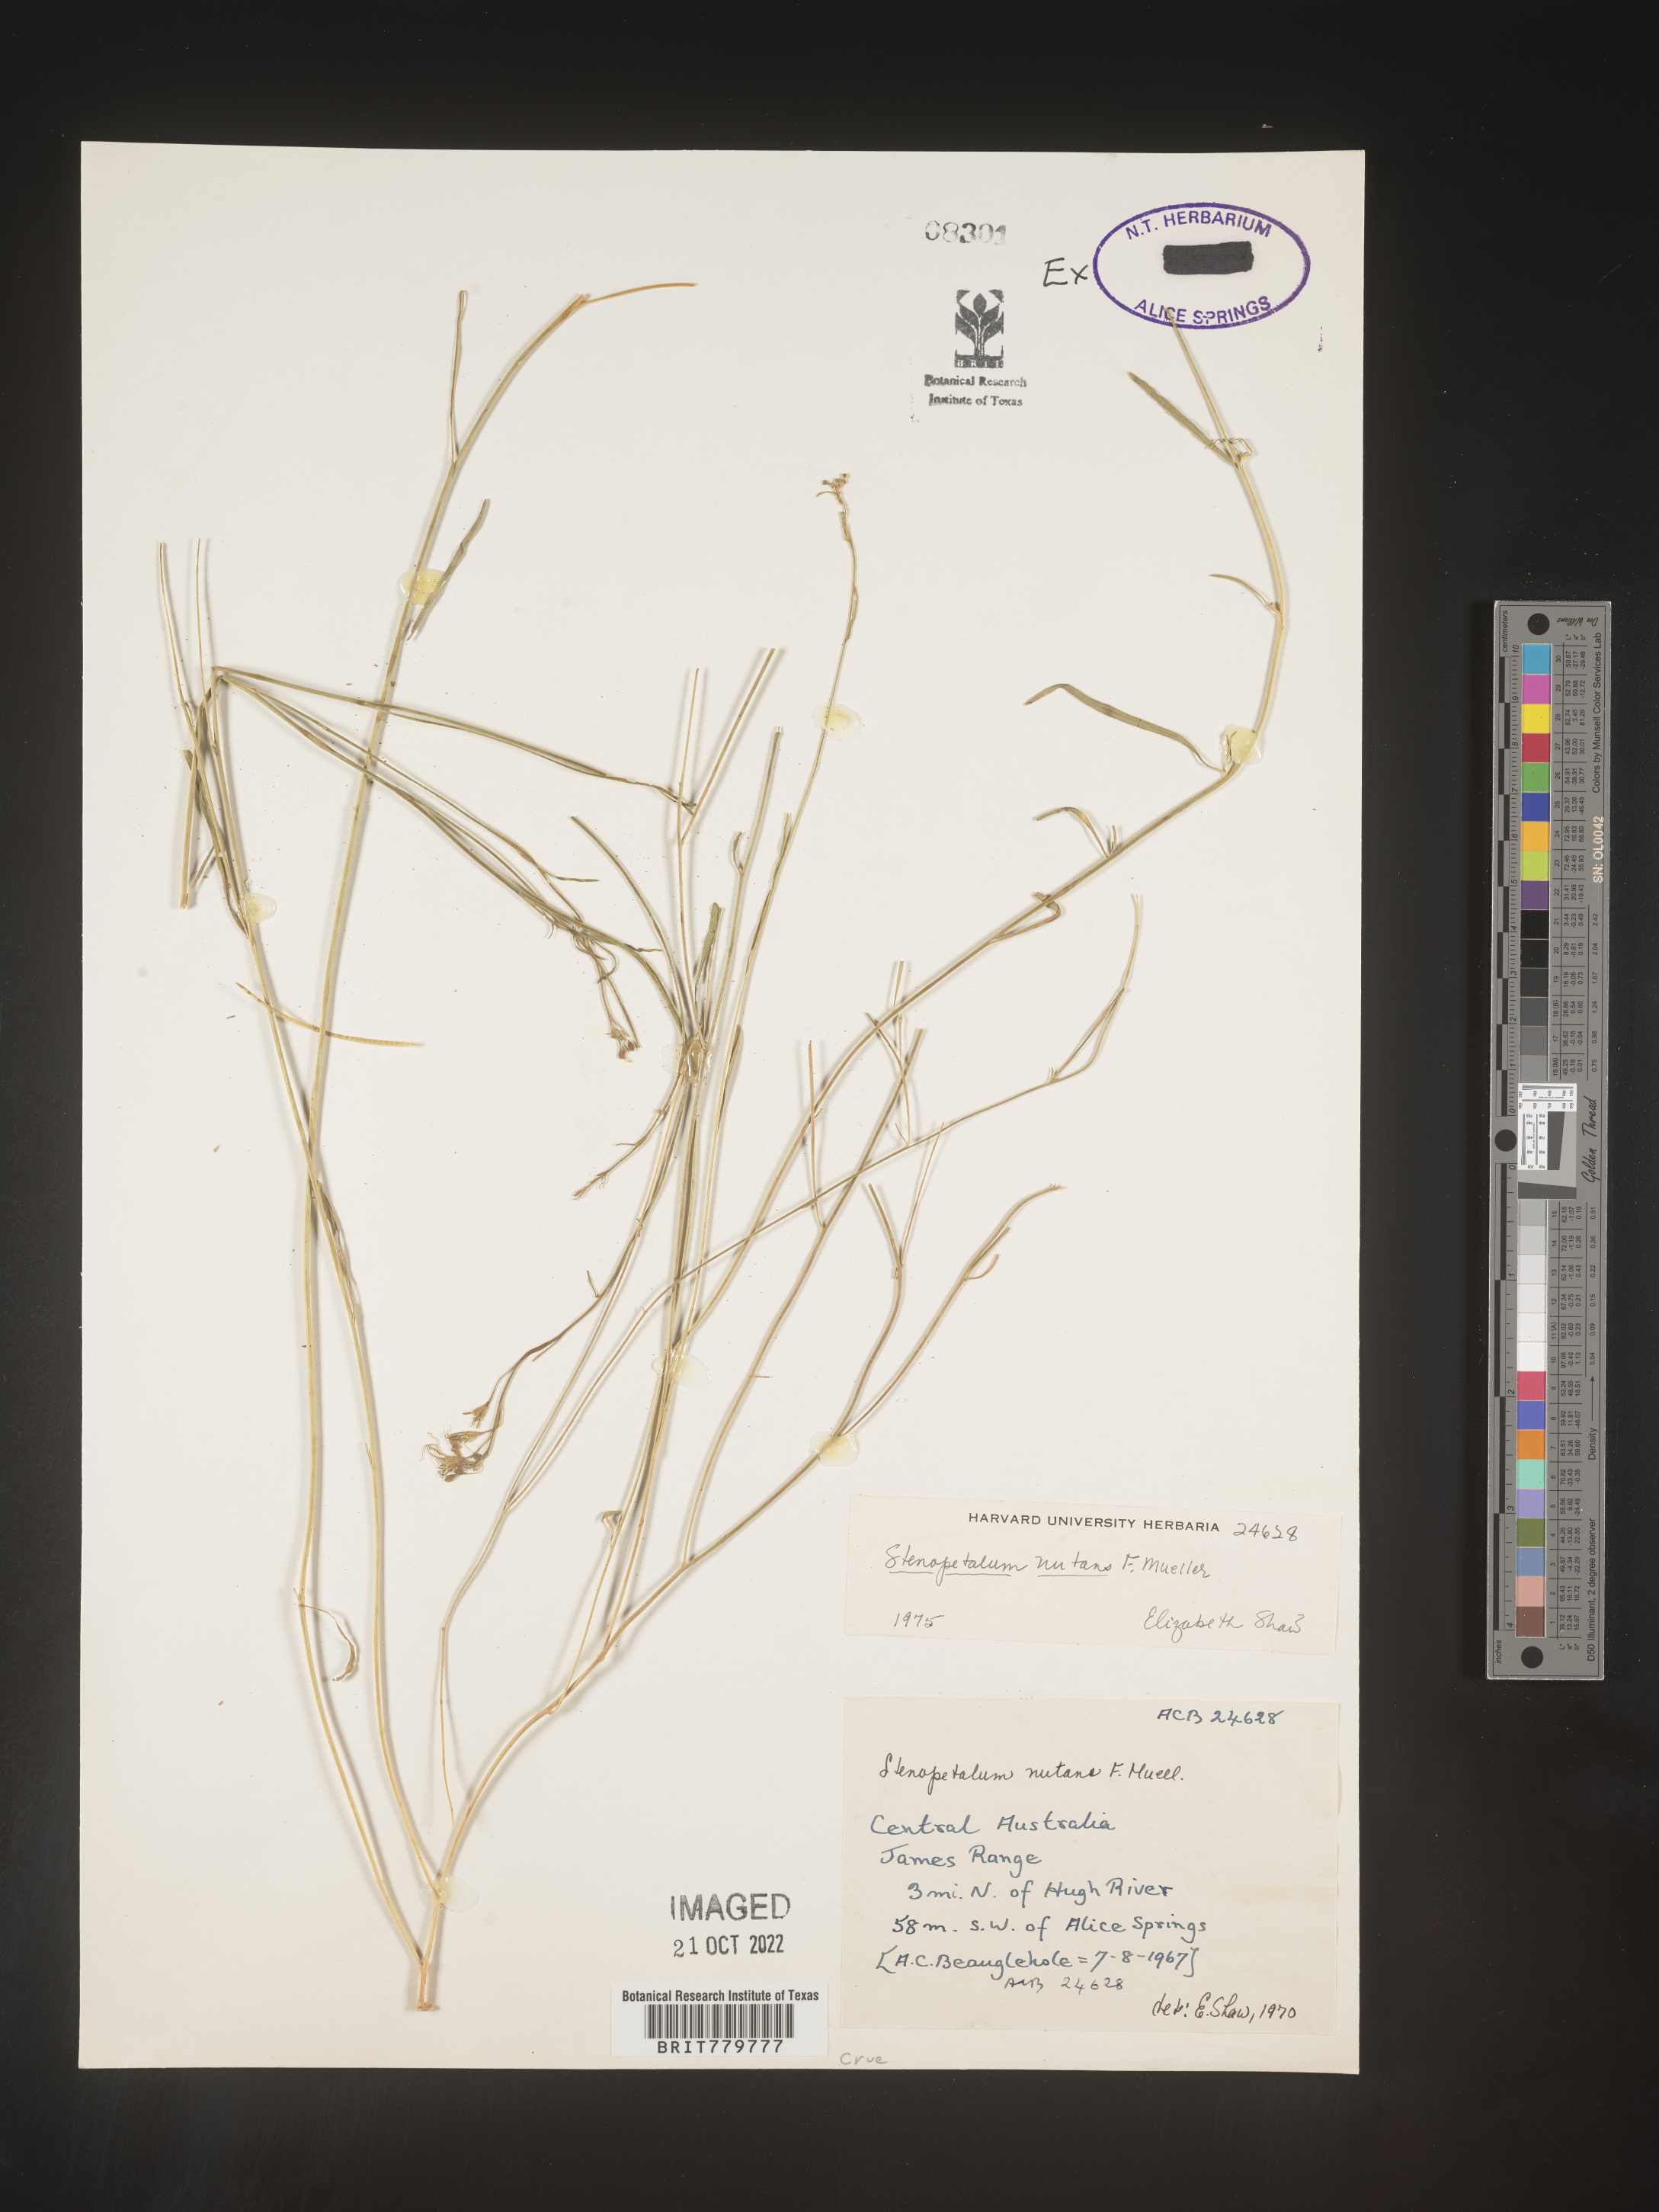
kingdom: Plantae
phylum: Tracheophyta
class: Magnoliopsida
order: Brassicales
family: Brassicaceae
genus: Stenopetalum
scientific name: Stenopetalum
